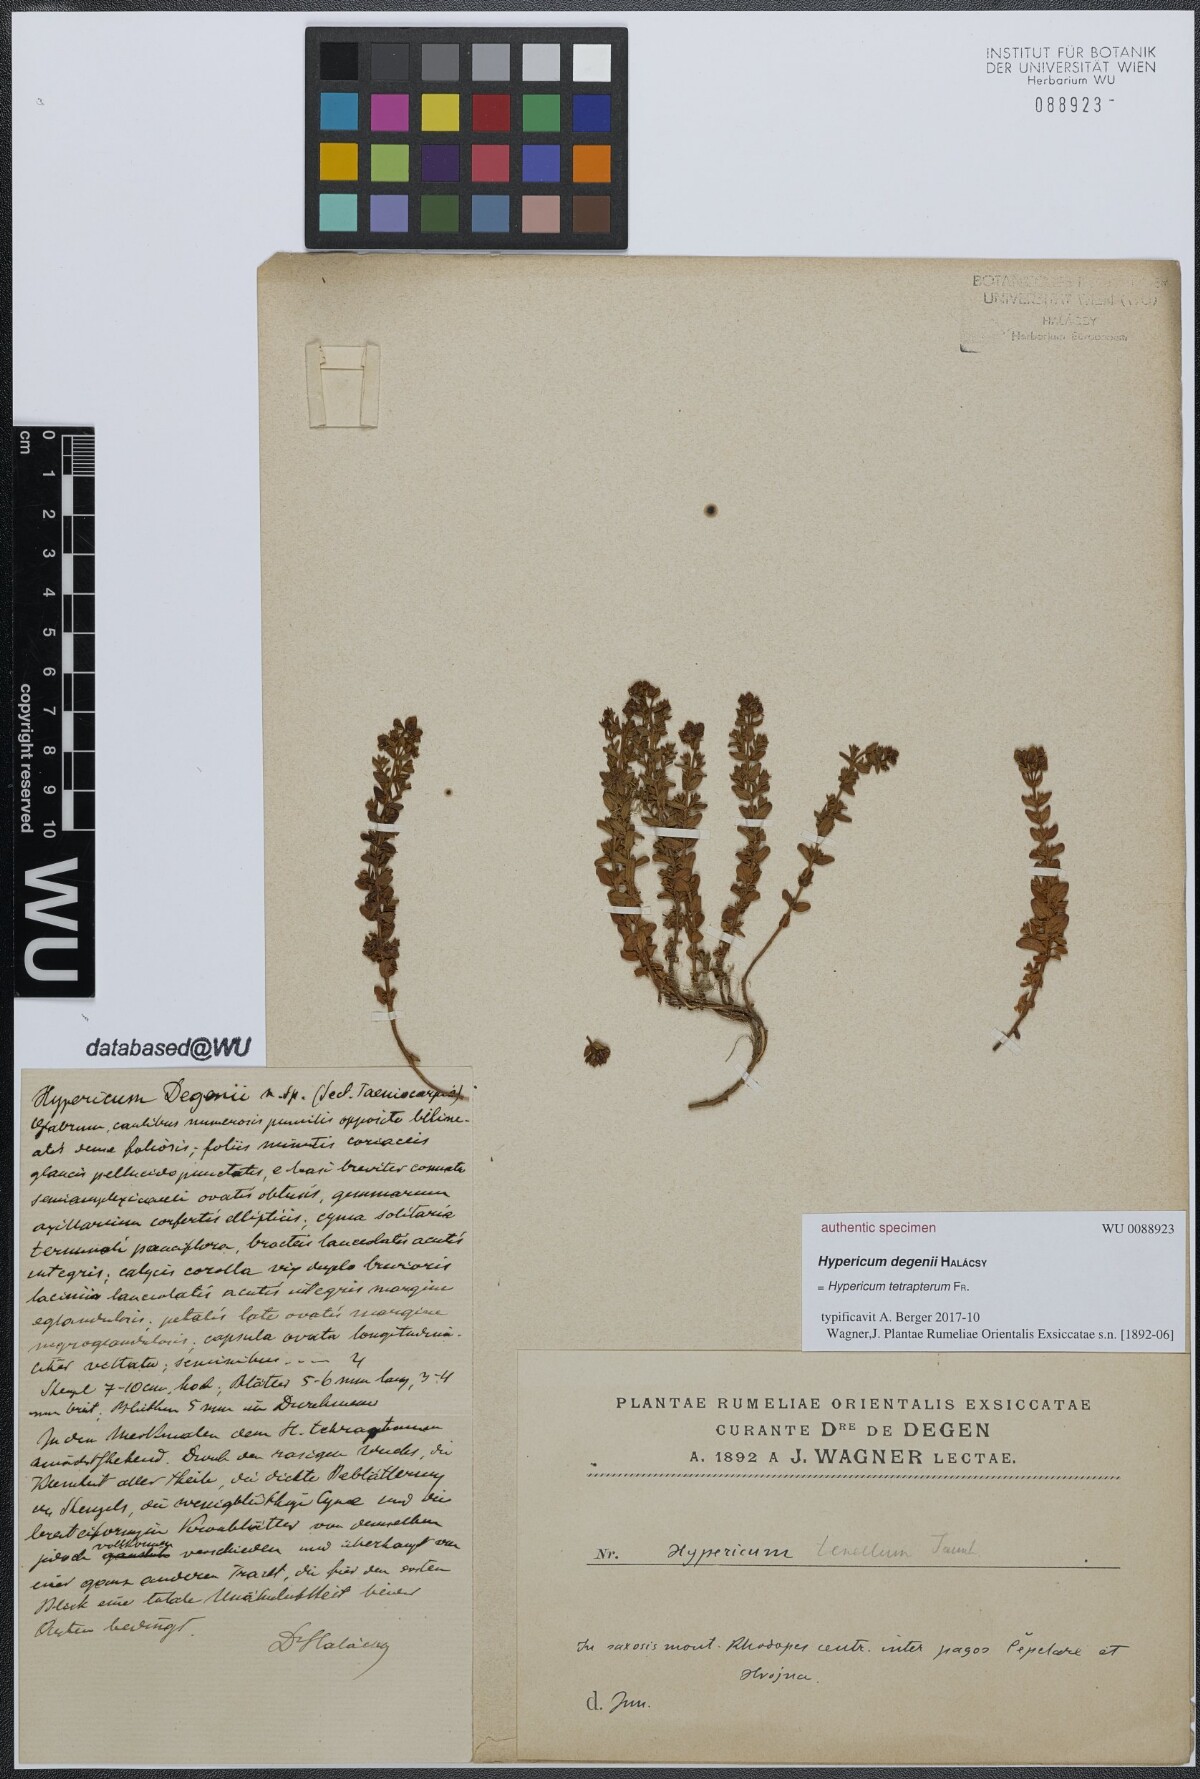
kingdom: Plantae
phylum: Tracheophyta
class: Magnoliopsida
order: Malpighiales
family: Clusiaceae
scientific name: Clusiaceae
